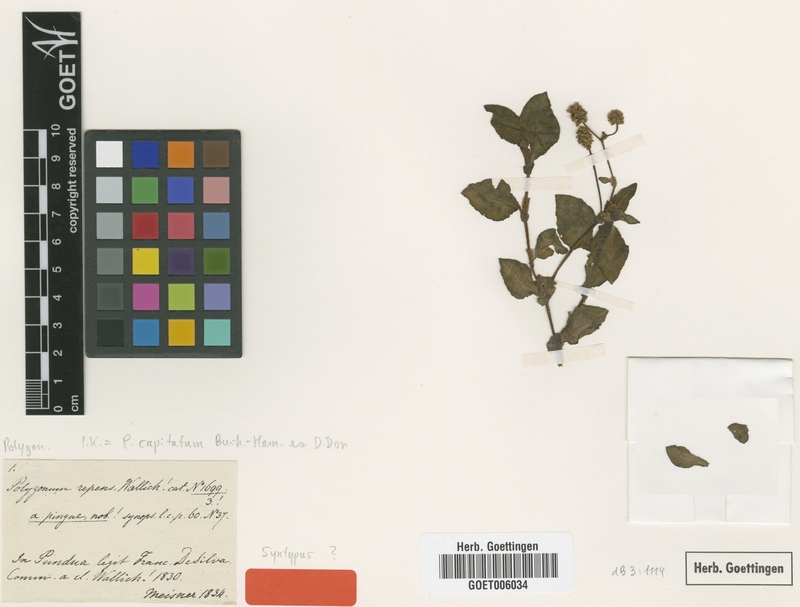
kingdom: Plantae
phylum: Tracheophyta
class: Magnoliopsida
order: Caryophyllales
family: Polygonaceae
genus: Persicaria
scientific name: Persicaria capitata
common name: Pinkhead smartweed
